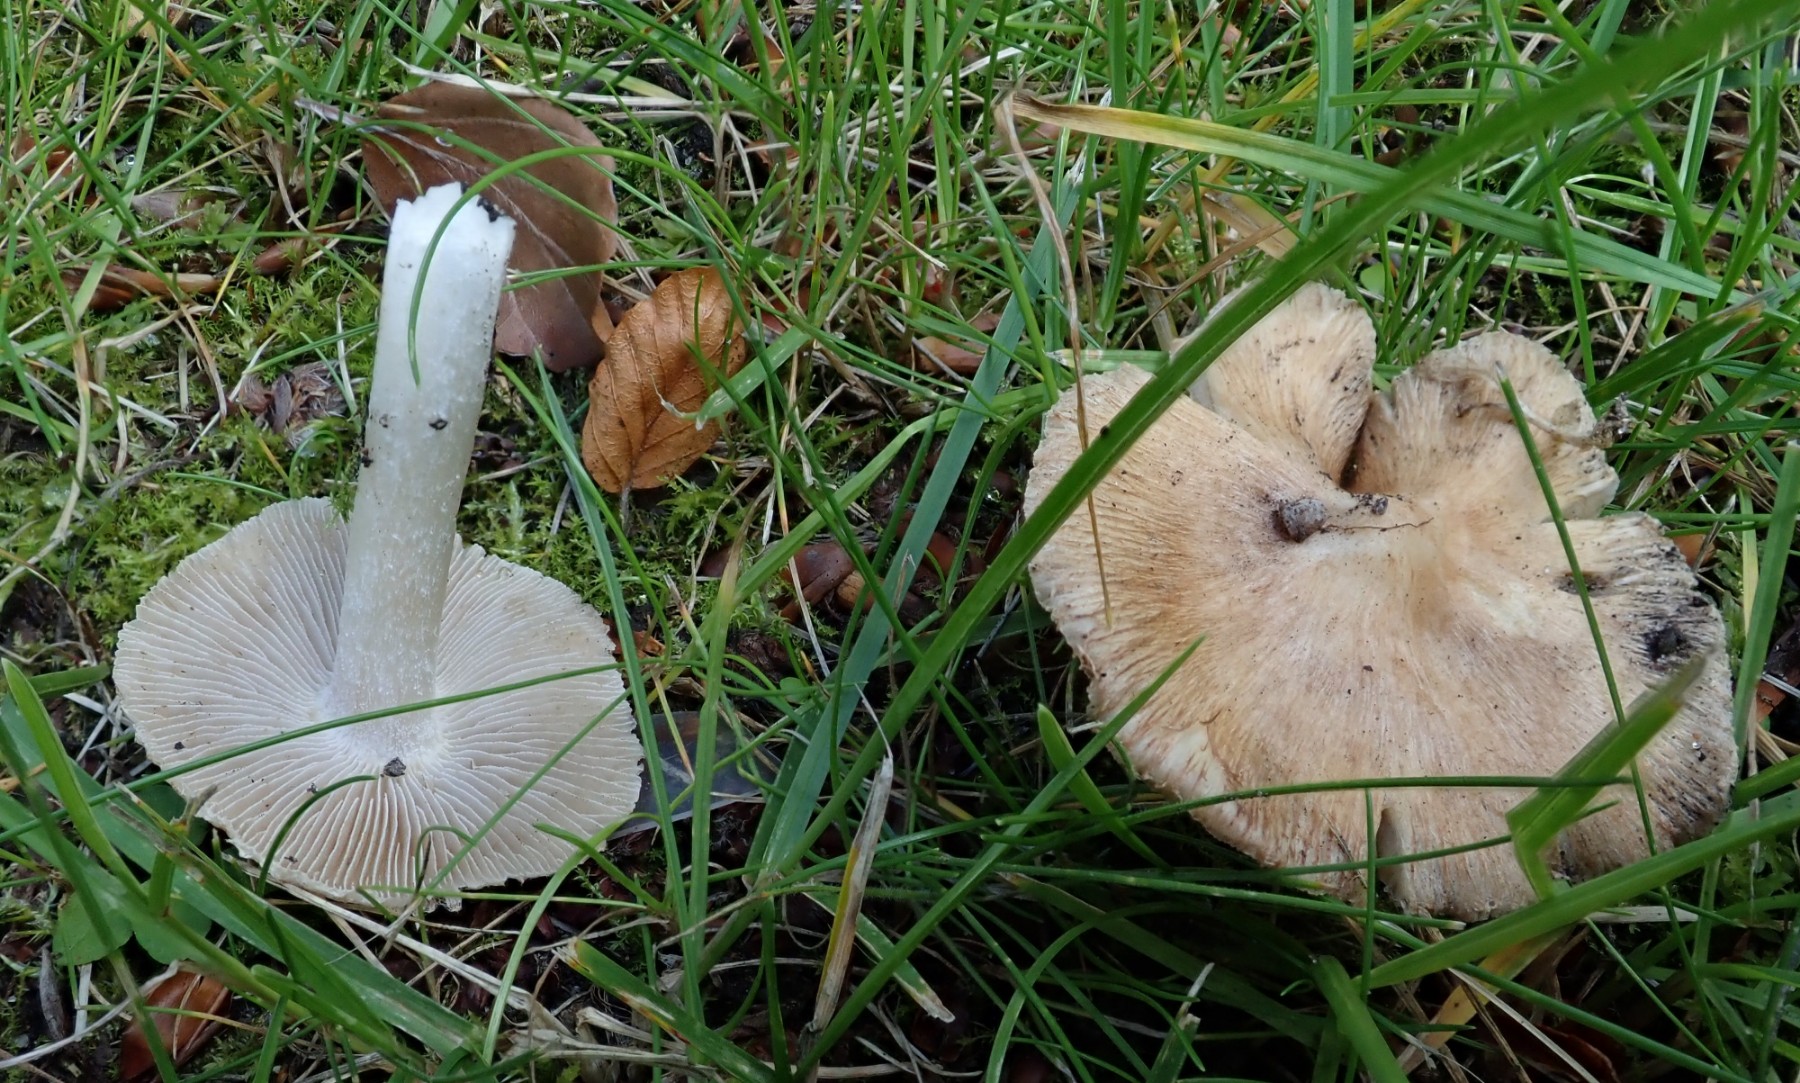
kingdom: Fungi
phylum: Basidiomycota
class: Agaricomycetes
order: Agaricales
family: Inocybaceae
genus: Inocybe
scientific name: Inocybe
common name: trævlhat
